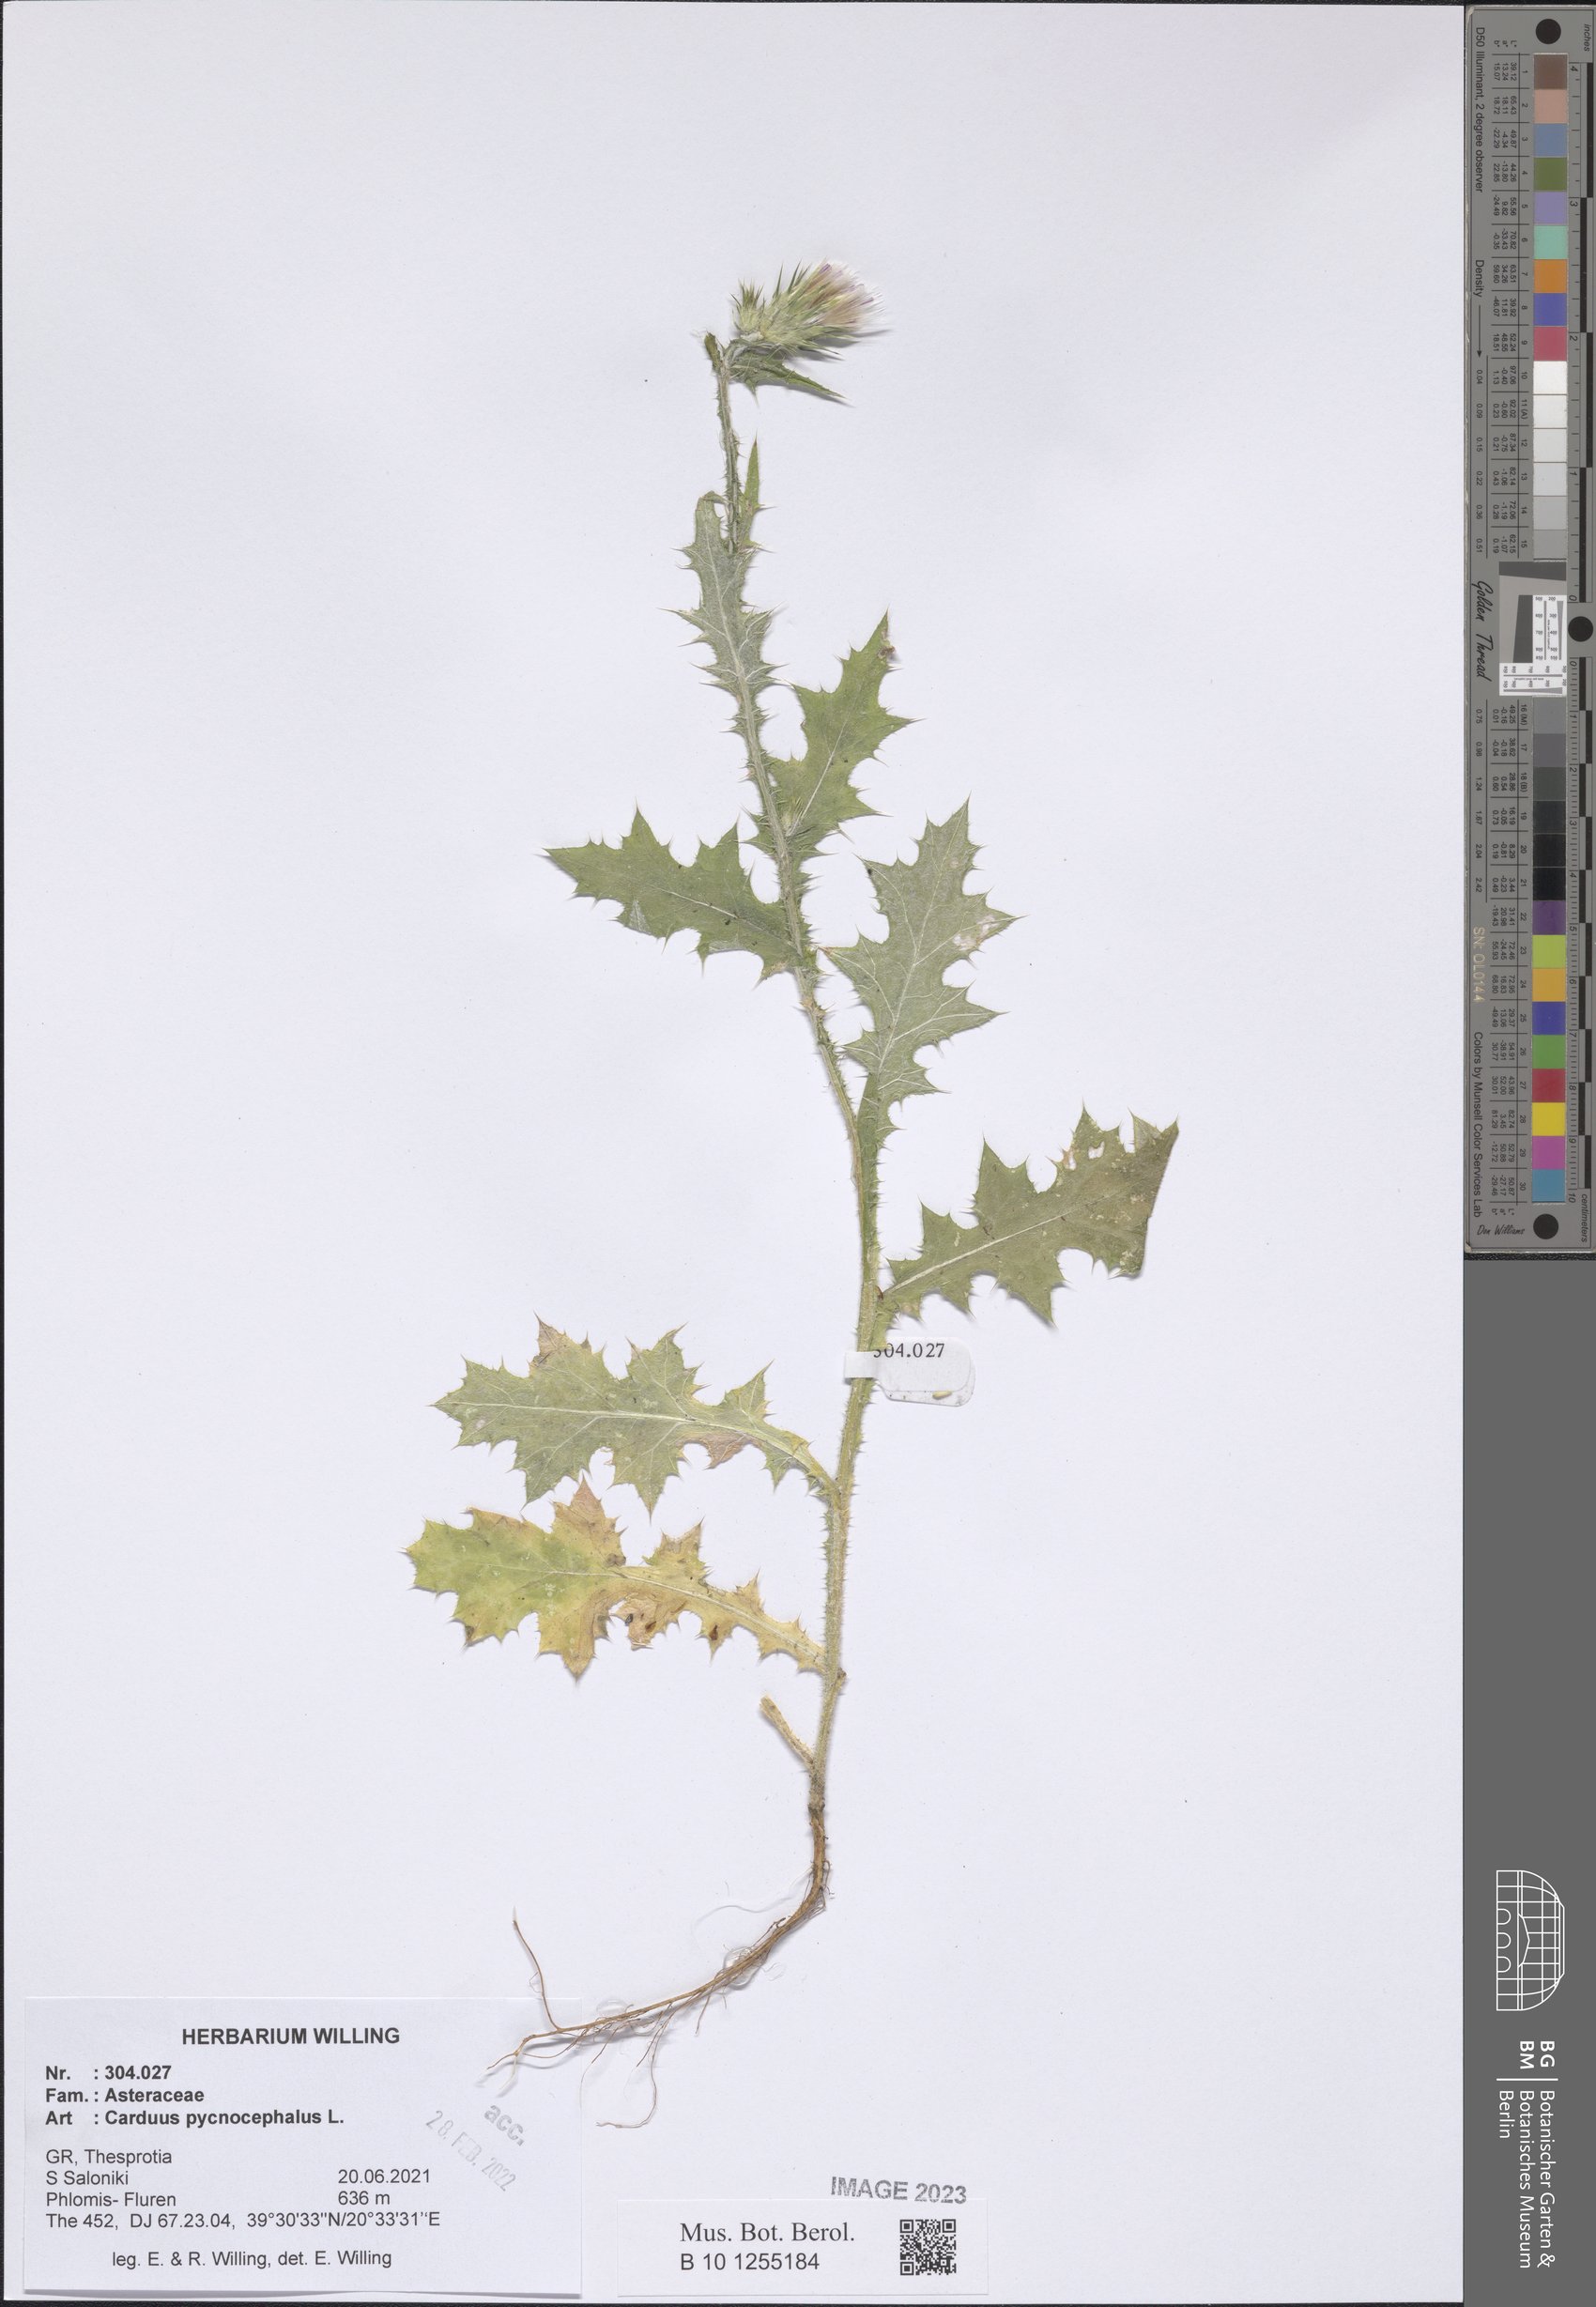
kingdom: Plantae
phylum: Tracheophyta
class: Magnoliopsida
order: Asterales
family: Asteraceae
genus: Carduus
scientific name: Carduus pycnocephalus
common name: Plymouth thistle
